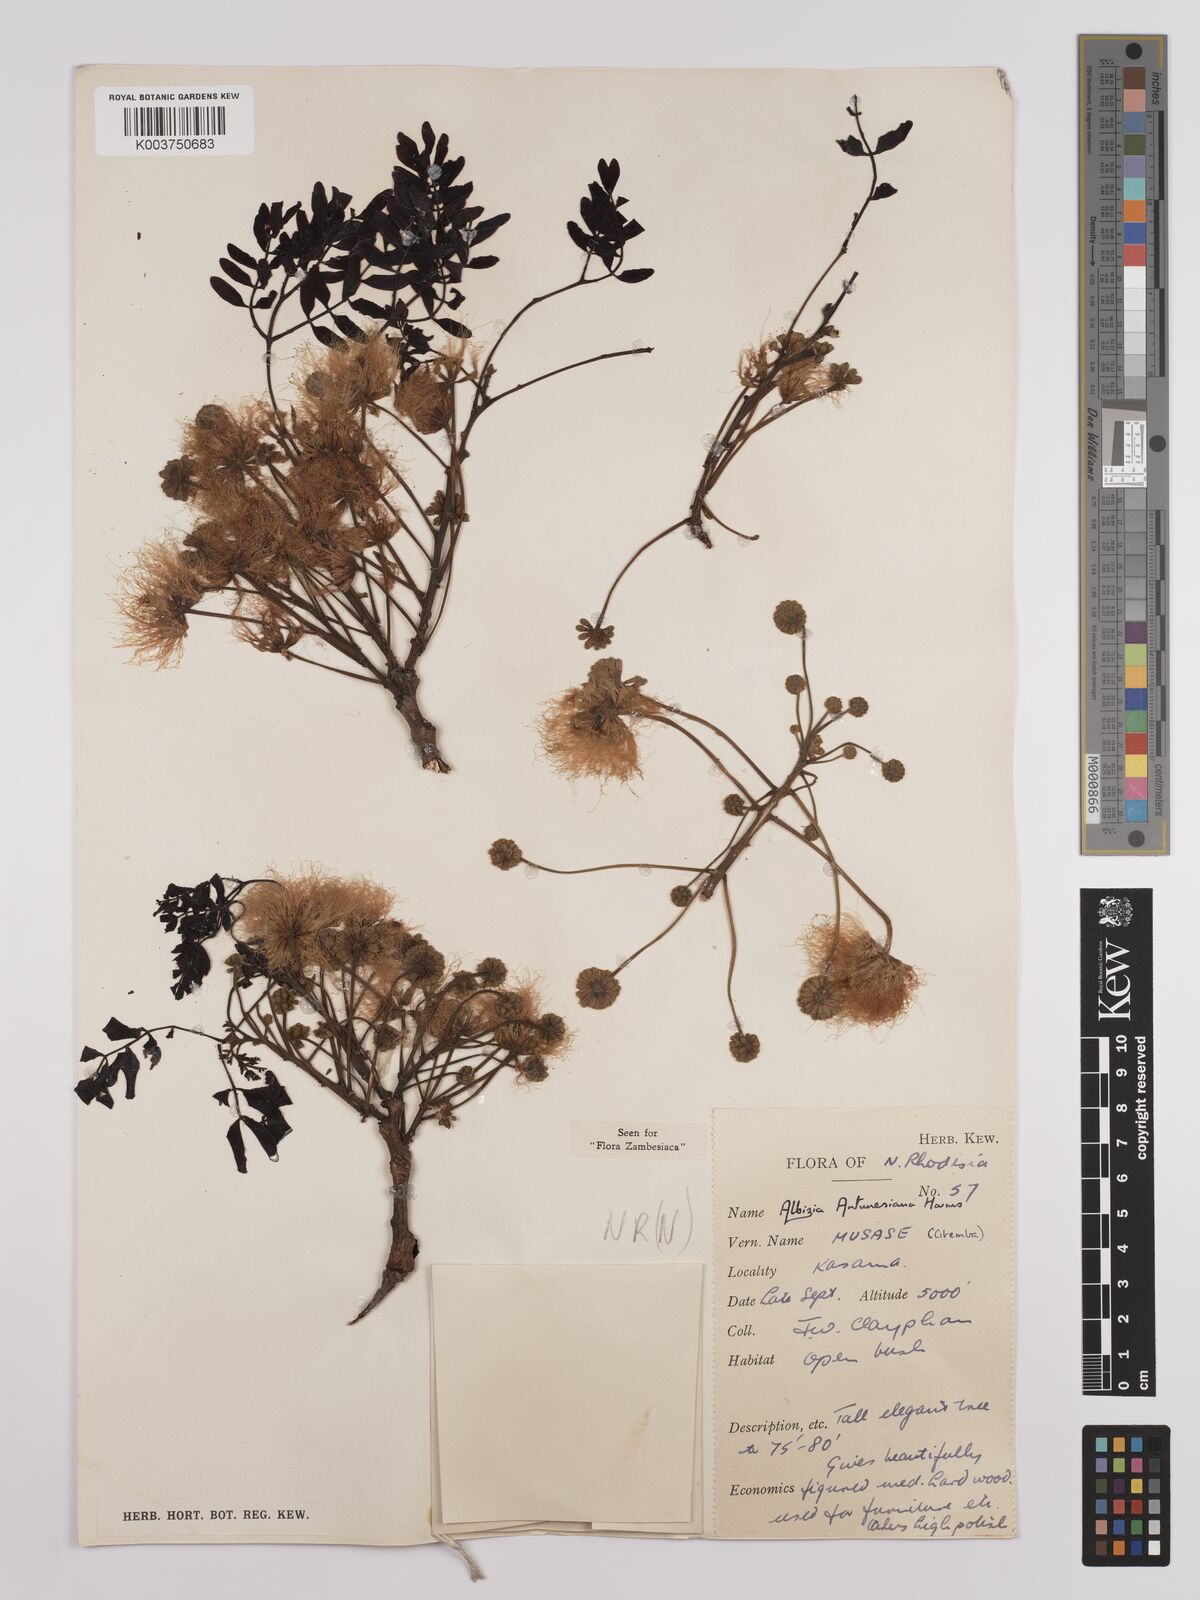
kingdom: Plantae
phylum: Tracheophyta
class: Magnoliopsida
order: Fabales
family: Fabaceae
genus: Albizia
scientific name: Albizia antunesiana
